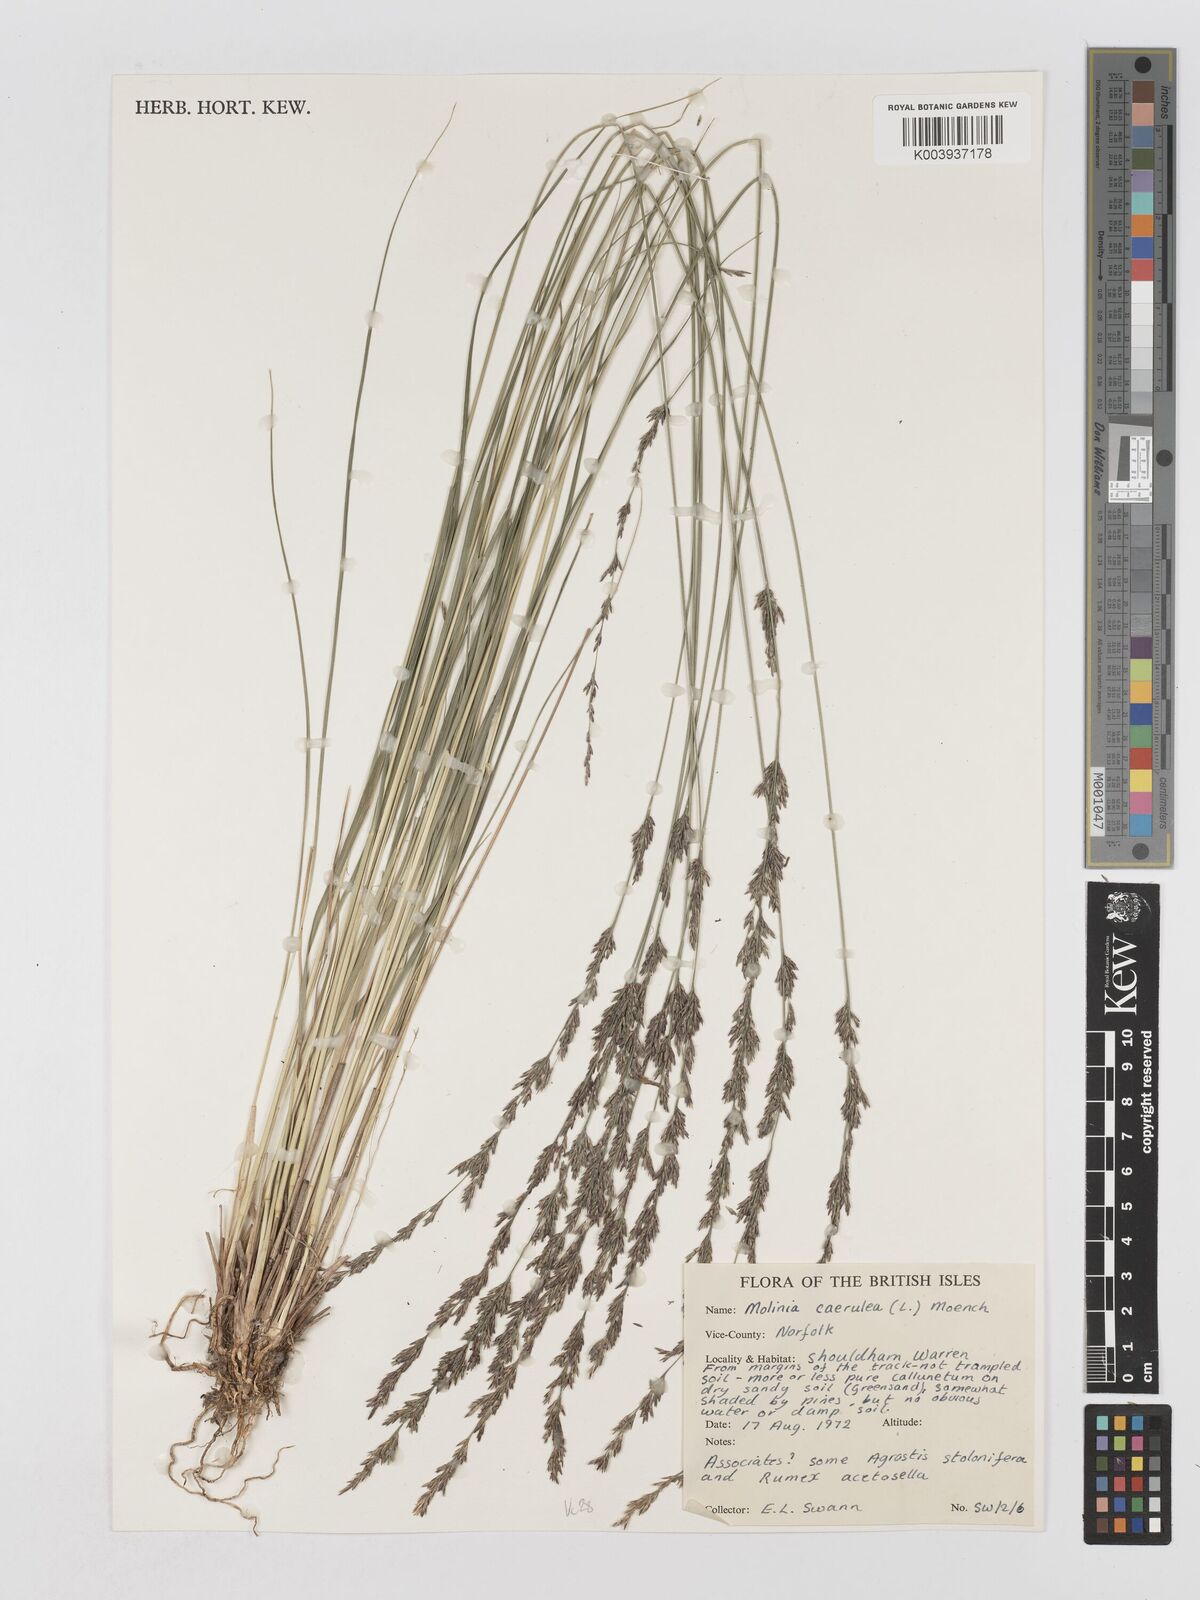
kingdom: Plantae
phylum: Tracheophyta
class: Liliopsida
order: Poales
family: Poaceae
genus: Molinia
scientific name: Molinia caerulea
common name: Purple moor-grass
